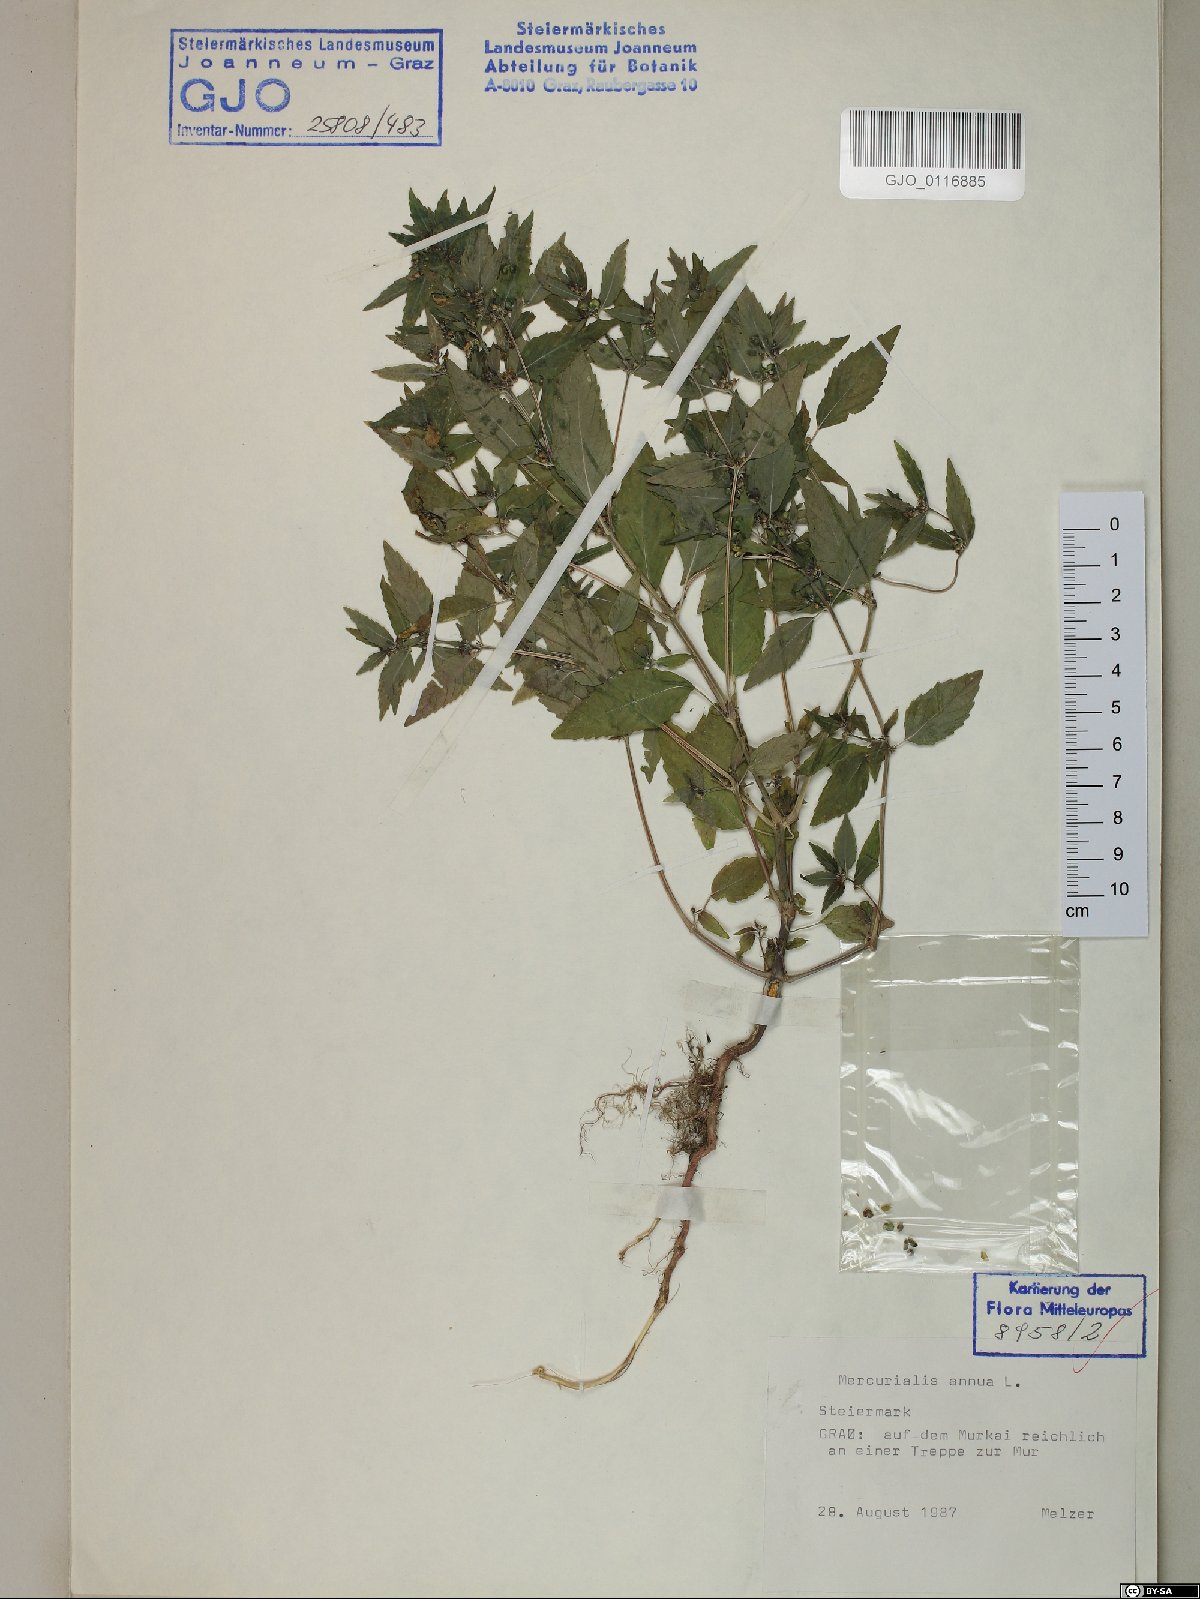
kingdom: Plantae
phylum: Tracheophyta
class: Magnoliopsida
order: Malpighiales
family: Euphorbiaceae
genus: Mercurialis
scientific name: Mercurialis annua
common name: Annual mercury
